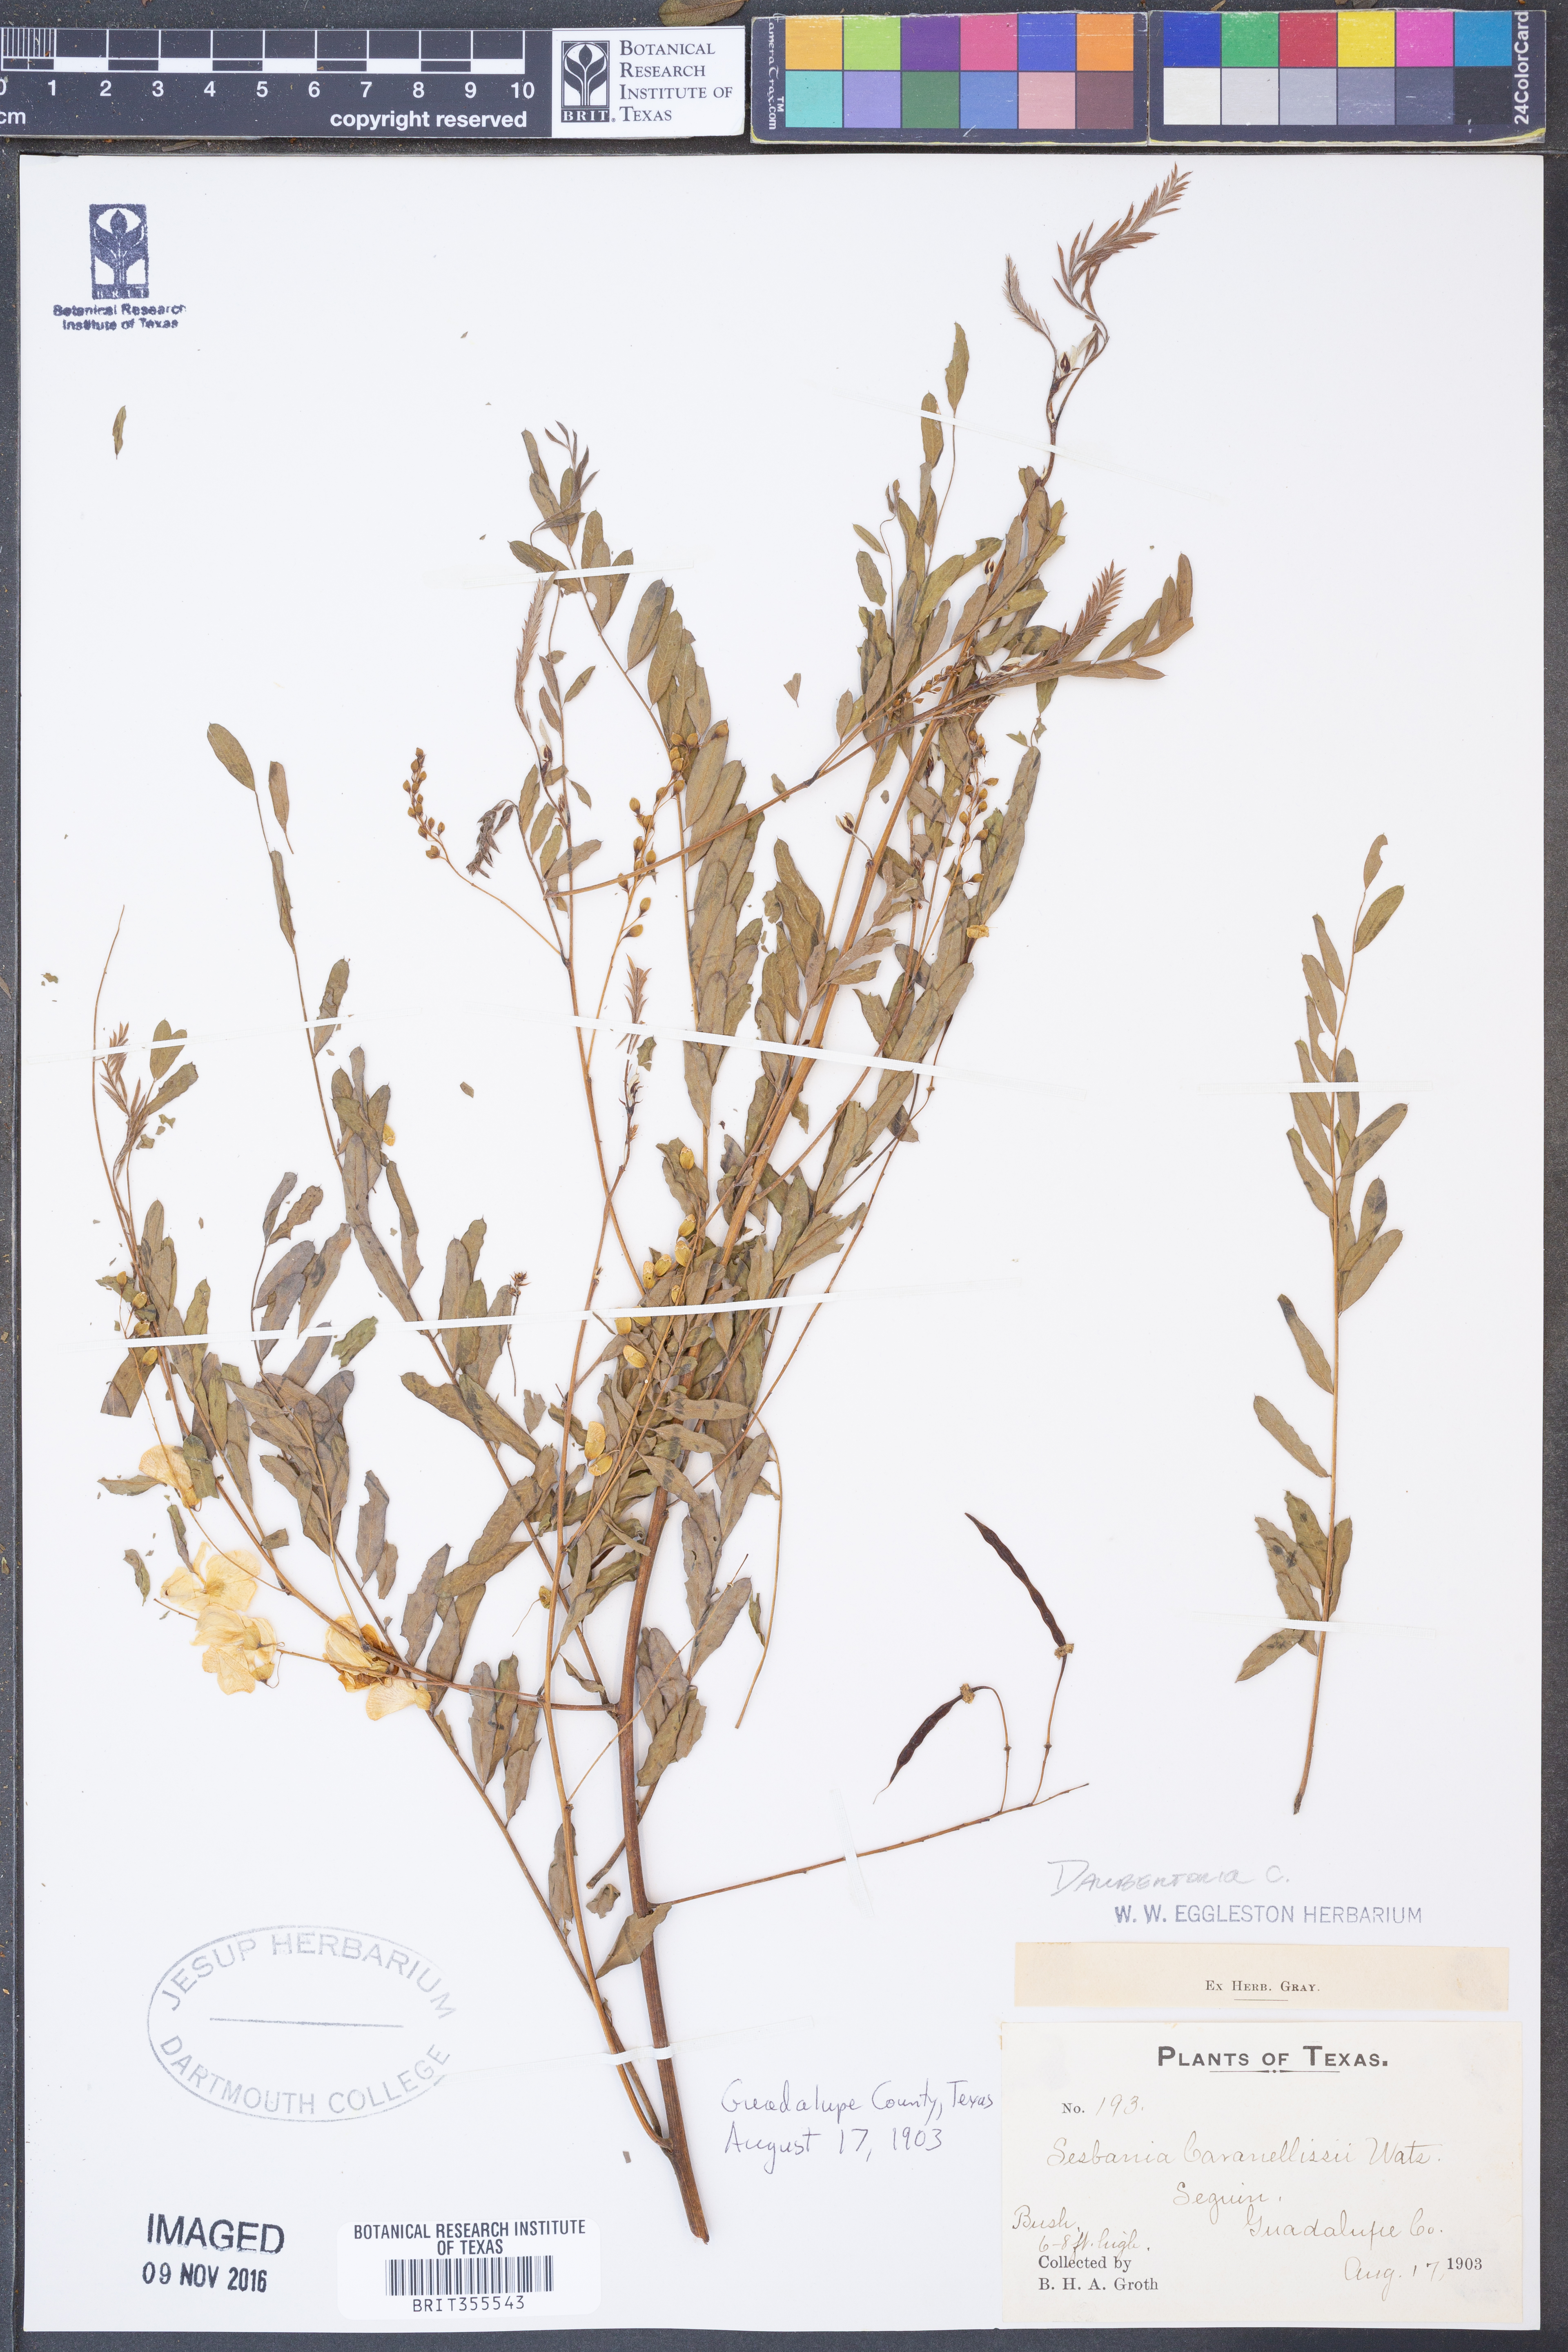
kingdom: Plantae
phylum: Tracheophyta
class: Magnoliopsida
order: Fabales
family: Fabaceae
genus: Sesbania
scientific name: Sesbania longifolia
